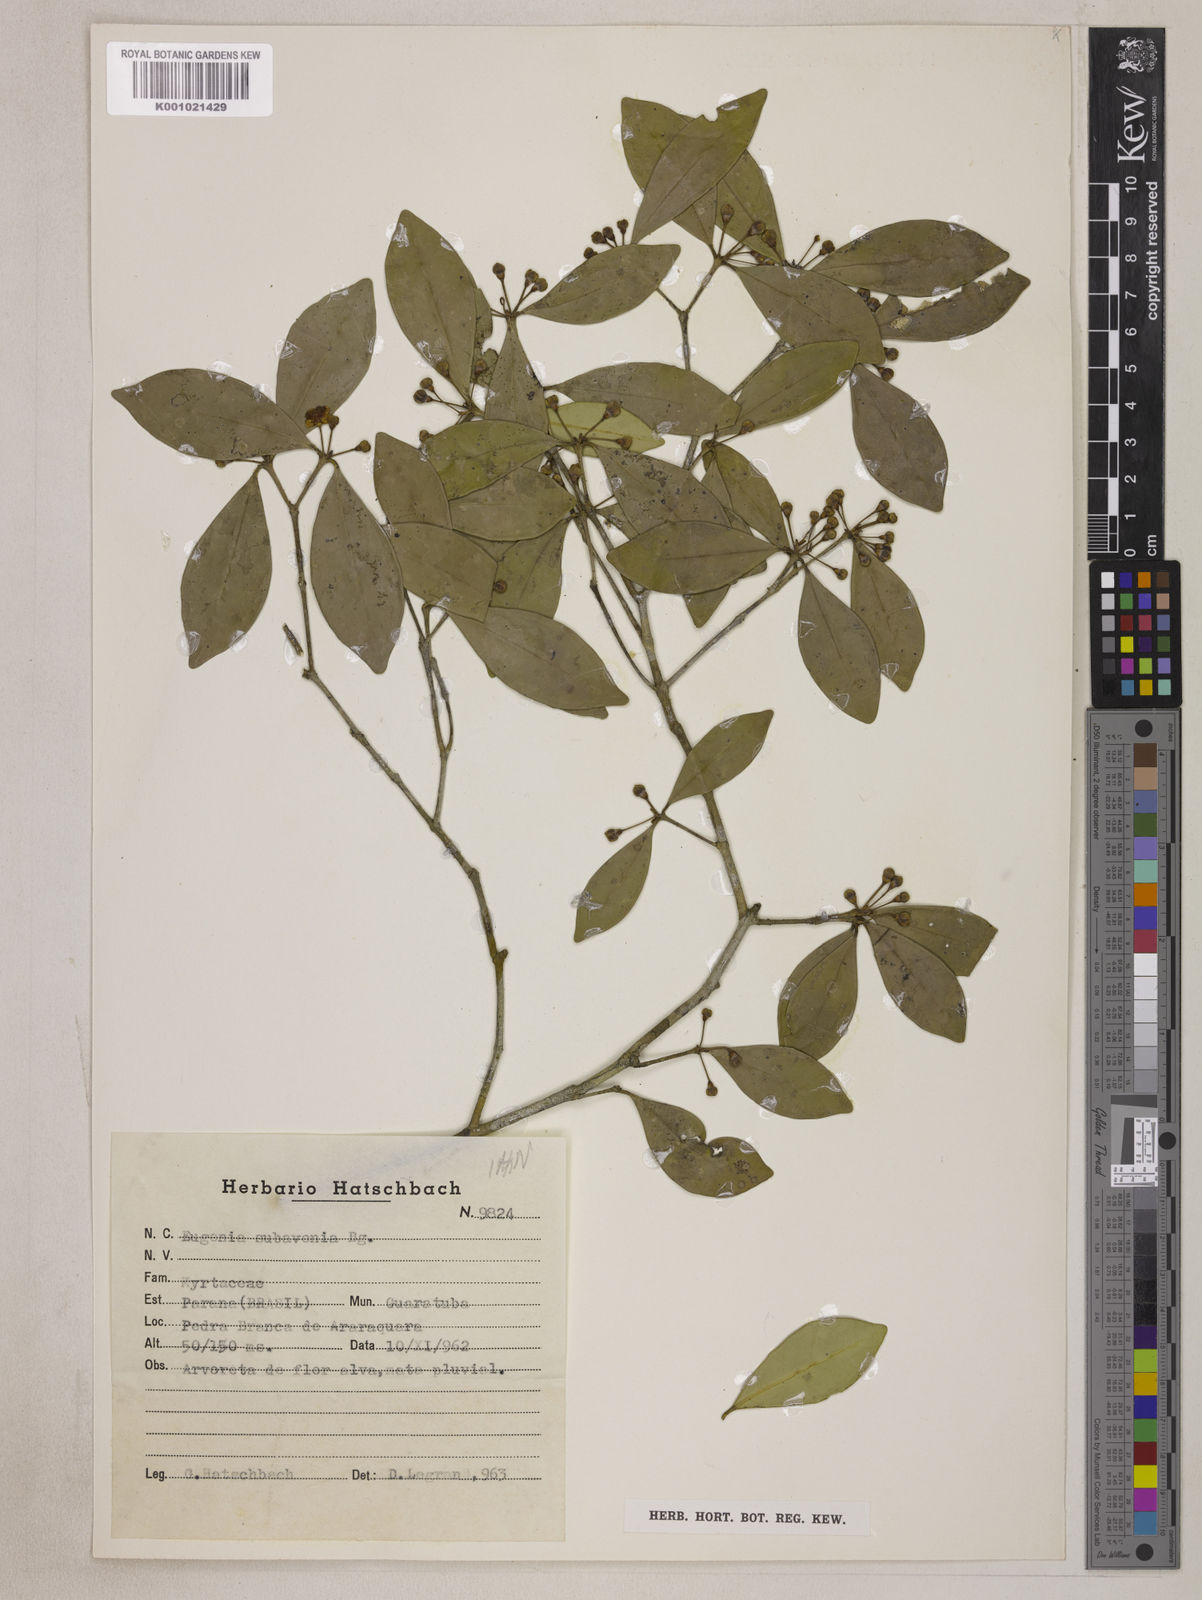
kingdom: Plantae
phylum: Tracheophyta
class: Magnoliopsida
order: Myrtales
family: Myrtaceae
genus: Eugenia
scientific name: Eugenia subavenia
